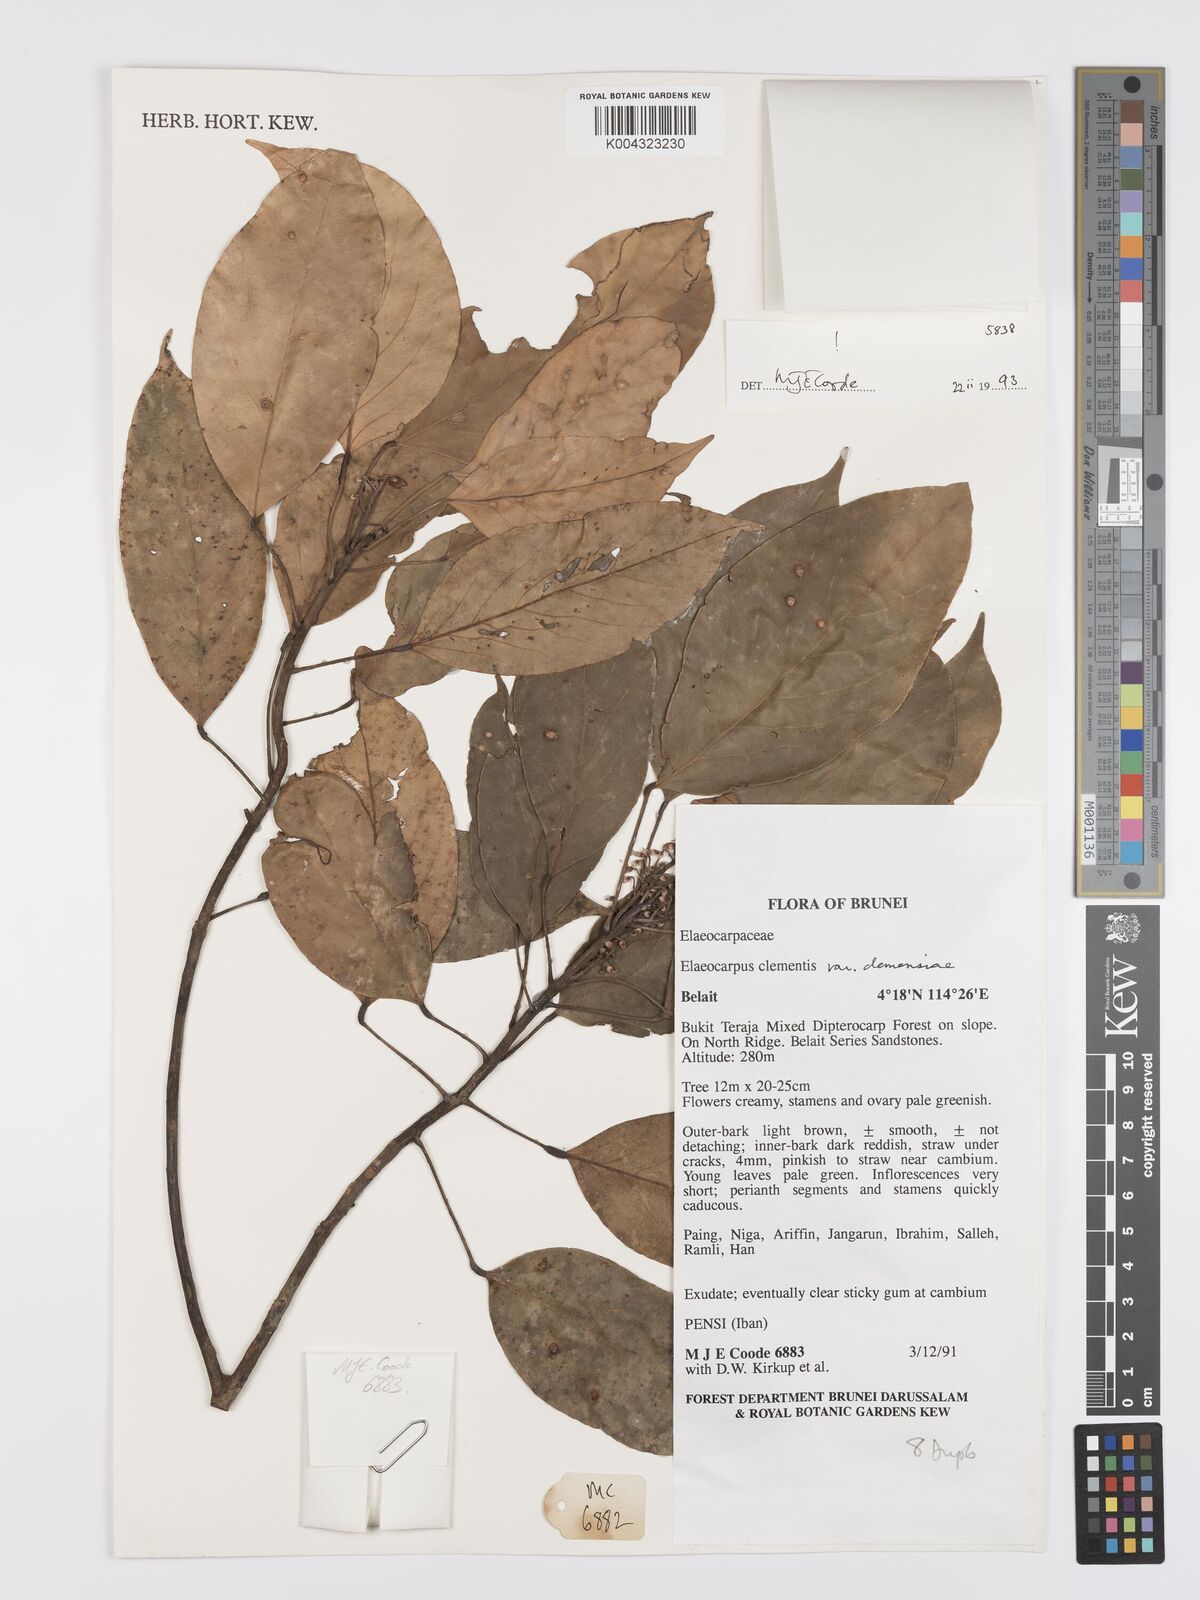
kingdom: Plantae
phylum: Tracheophyta
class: Magnoliopsida
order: Oxalidales
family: Elaeocarpaceae
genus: Elaeocarpus
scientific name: Elaeocarpus clementis
